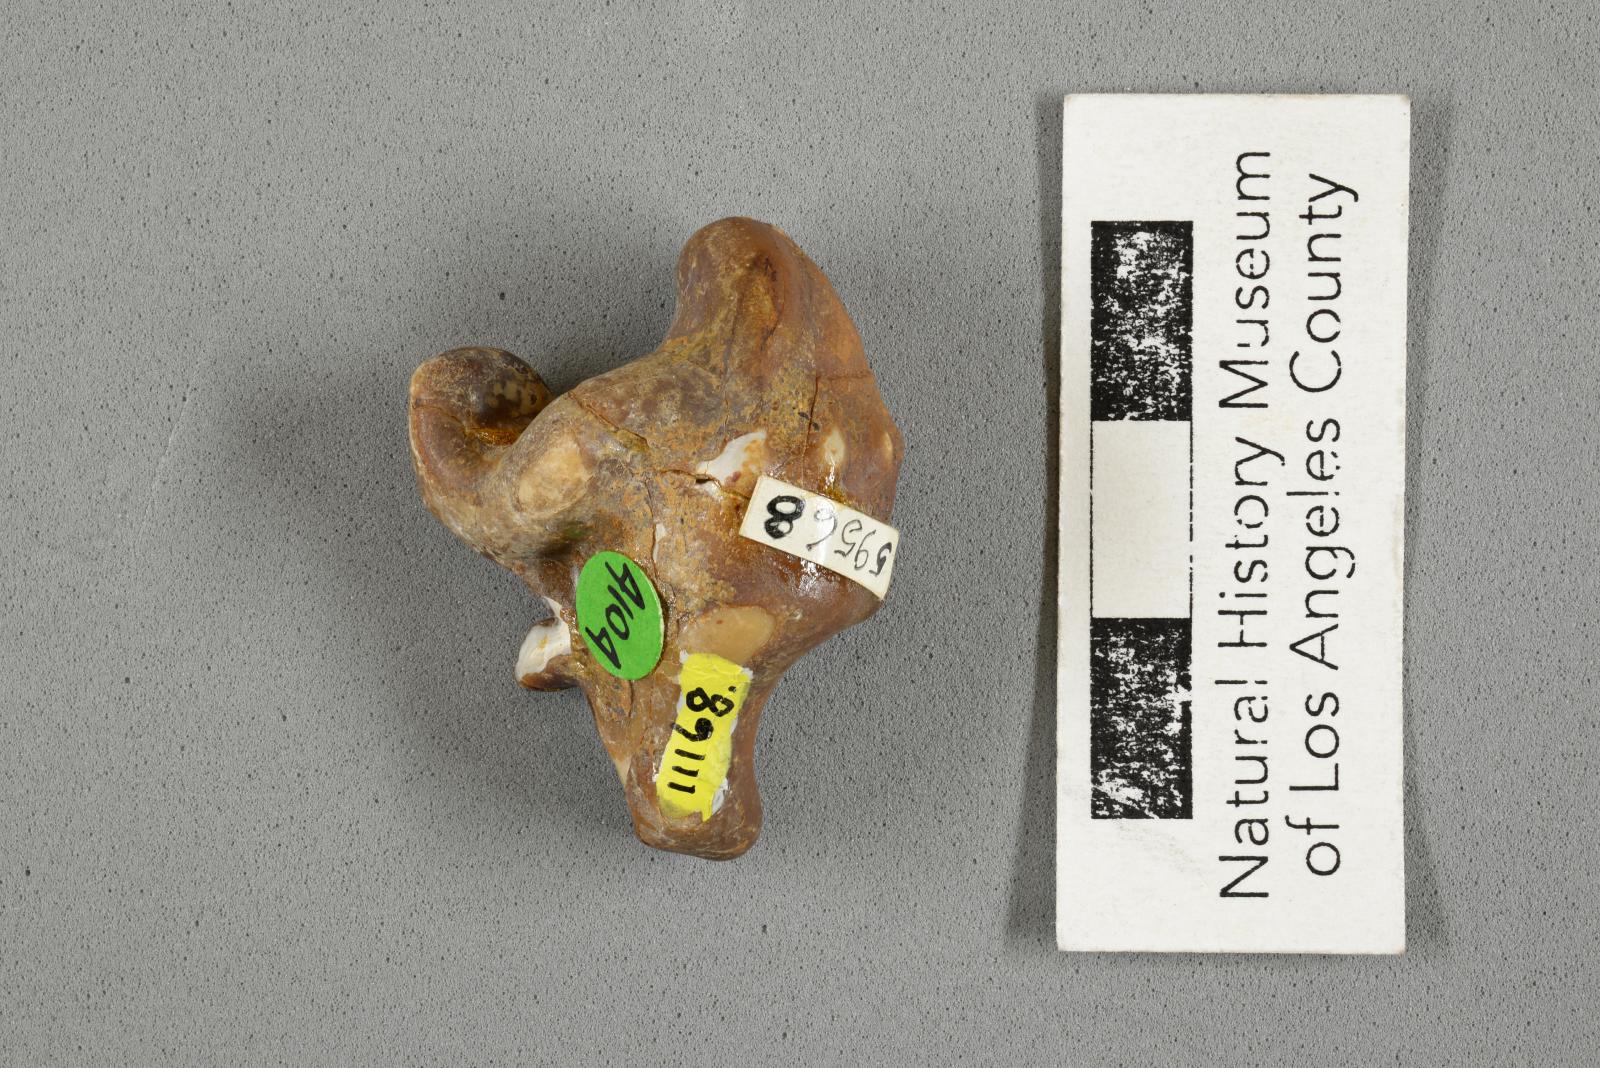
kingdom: Animalia
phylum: Mollusca
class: Gastropoda
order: Littorinimorpha
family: Aporrhaidae
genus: Pyktes
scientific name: Pyktes aspris
